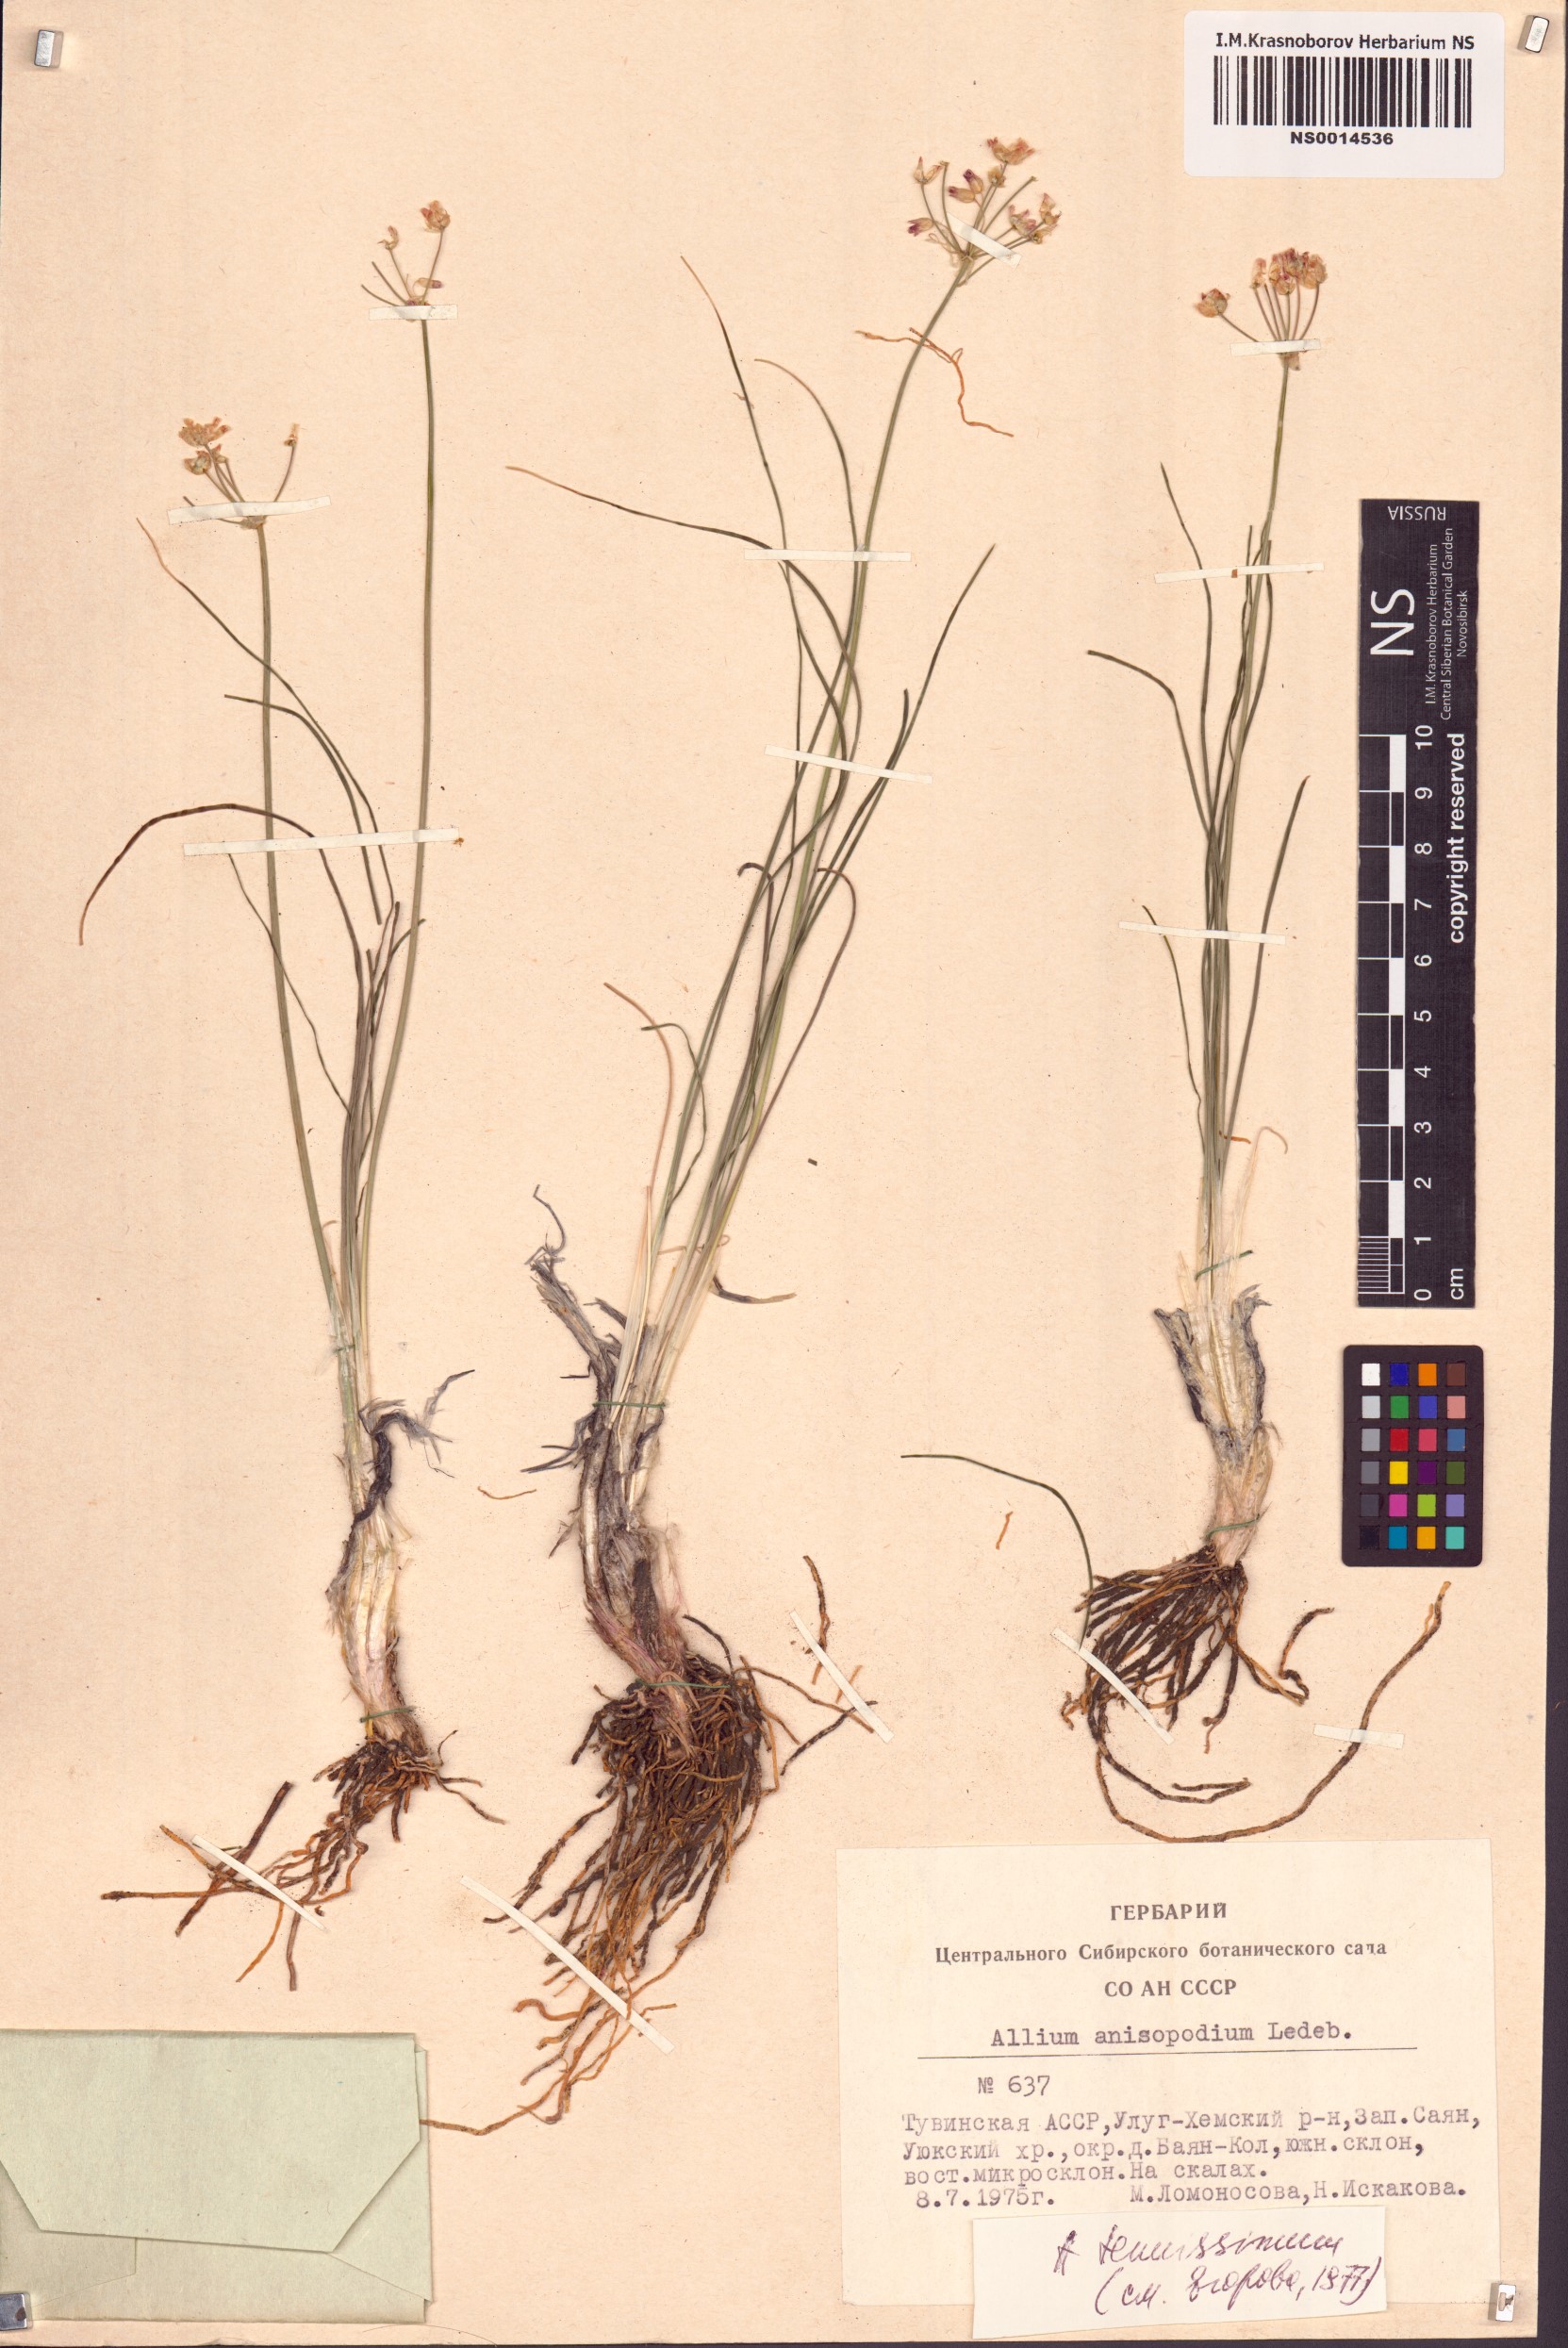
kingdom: Plantae
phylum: Tracheophyta
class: Liliopsida
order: Asparagales
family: Amaryllidaceae
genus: Allium
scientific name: Allium anisopodium
